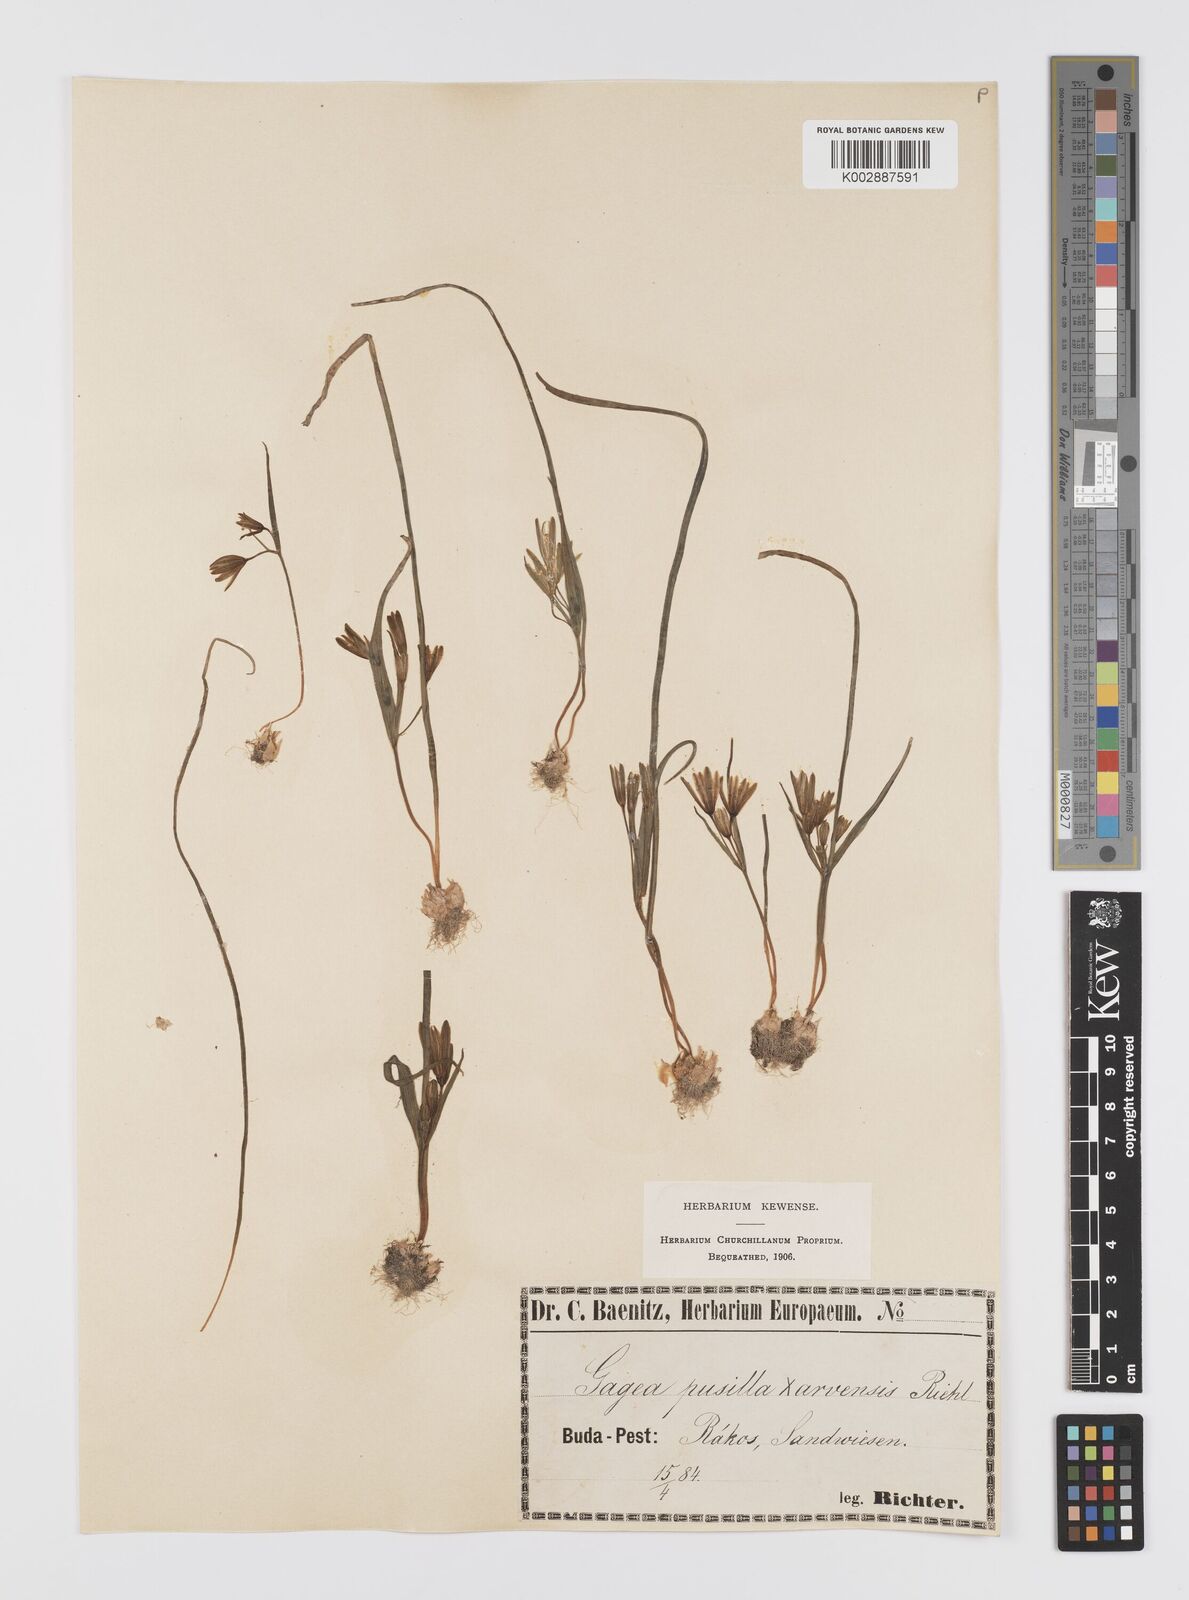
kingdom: Plantae
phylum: Tracheophyta
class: Liliopsida
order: Liliales
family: Liliaceae
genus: Gagea
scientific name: Gagea pusilla
